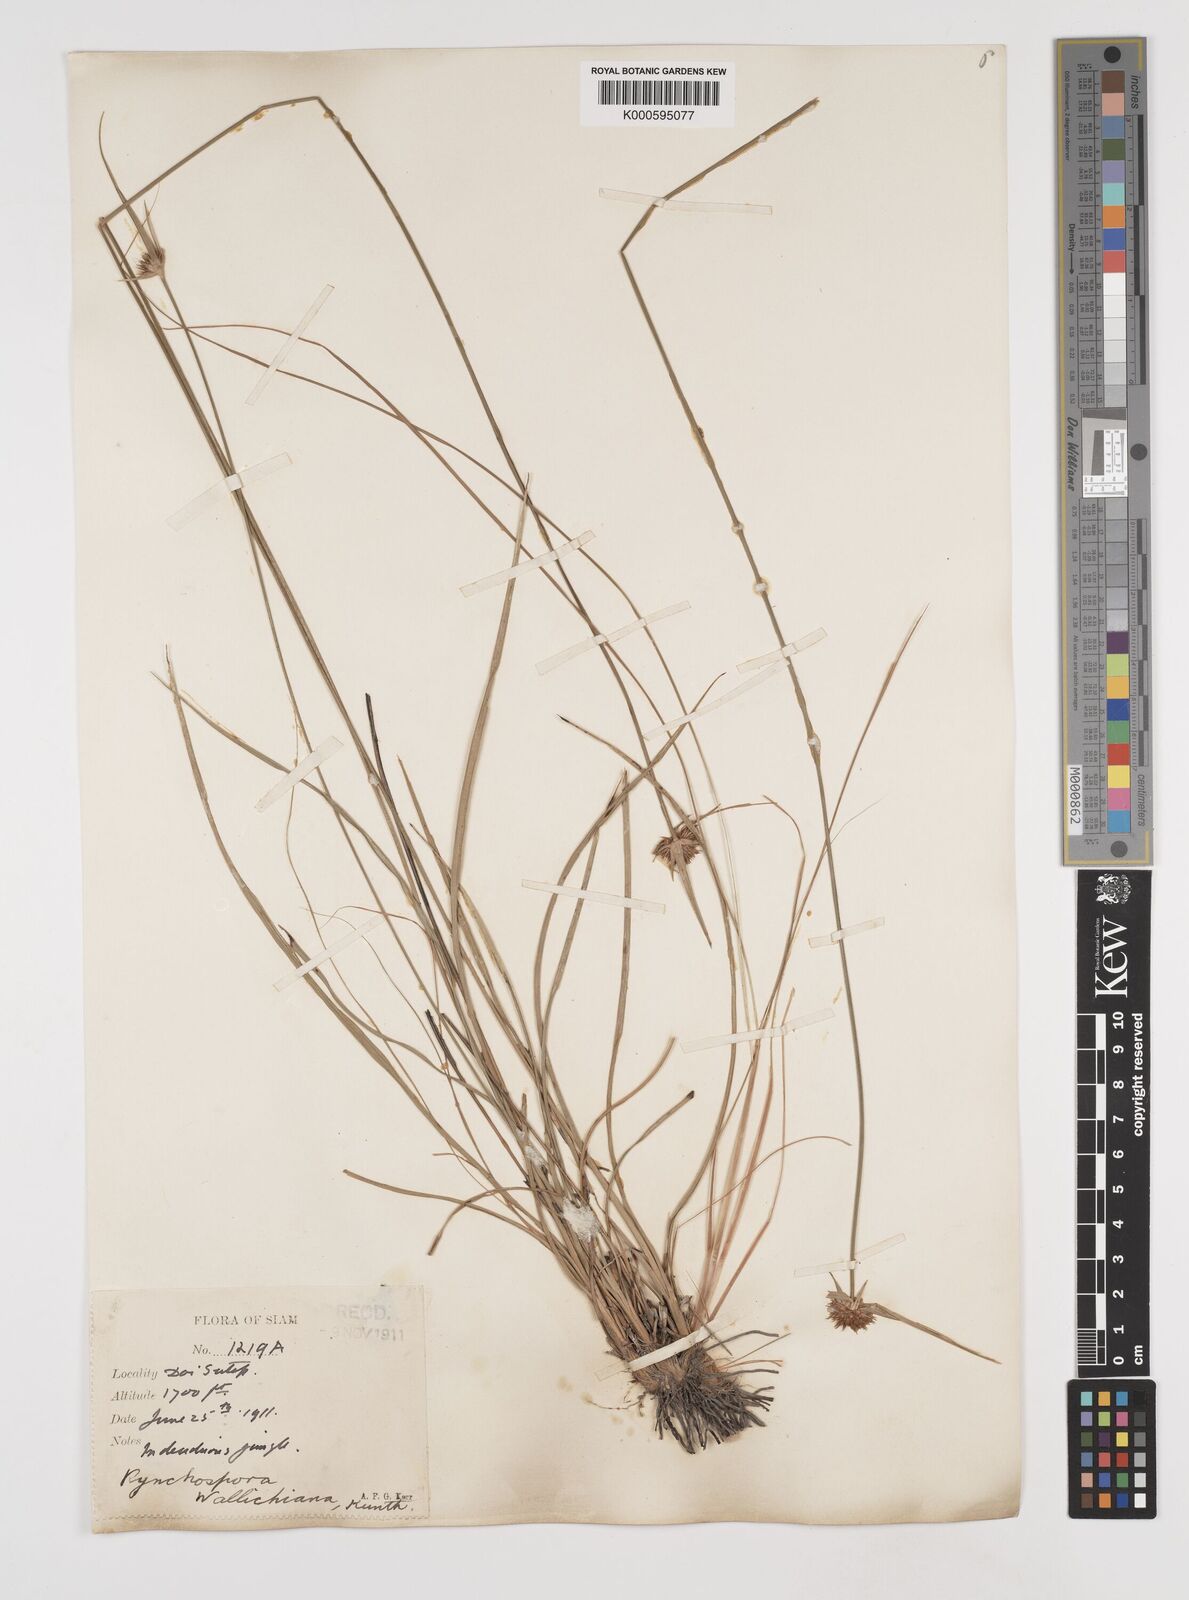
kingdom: Plantae
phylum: Tracheophyta
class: Liliopsida
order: Poales
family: Cyperaceae
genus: Rhynchospora
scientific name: Rhynchospora rubra
